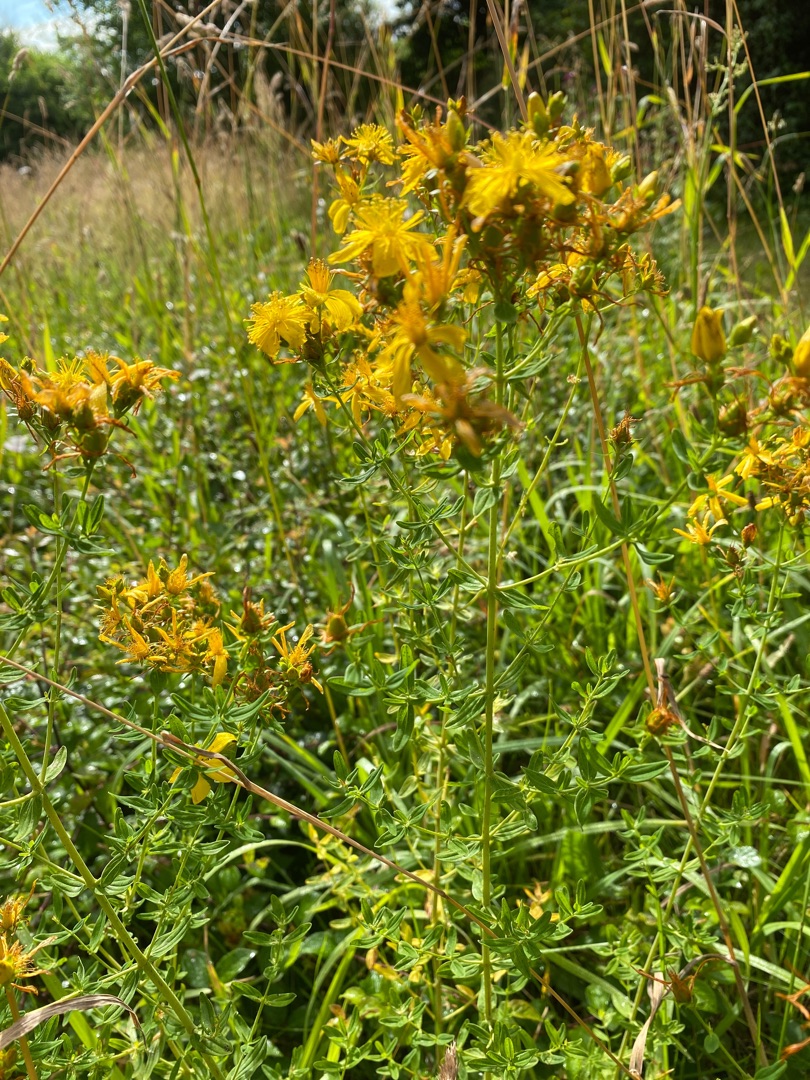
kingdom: Plantae
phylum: Tracheophyta
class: Magnoliopsida
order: Malpighiales
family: Hypericaceae
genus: Hypericum
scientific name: Hypericum perforatum
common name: Prikbladet perikon
